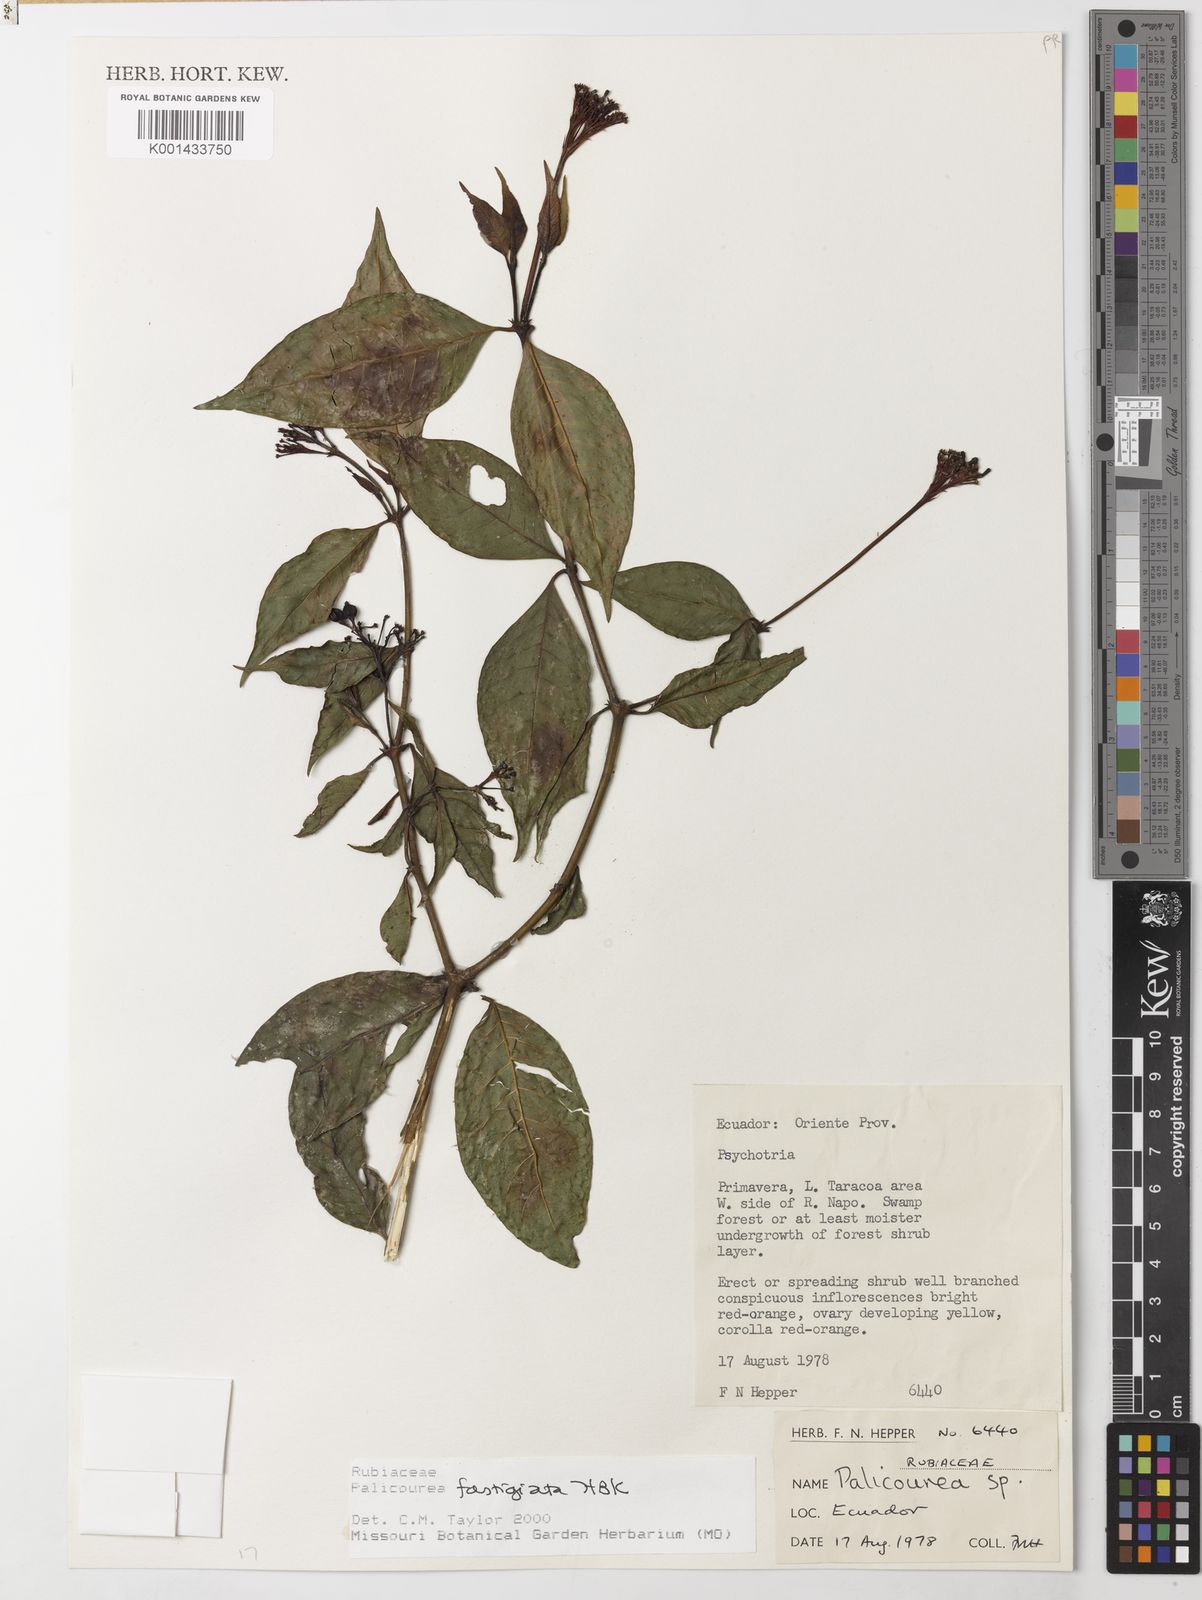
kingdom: Plantae
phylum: Tracheophyta
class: Magnoliopsida
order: Gentianales
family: Rubiaceae
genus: Palicourea
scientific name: Palicourea fastigiata
